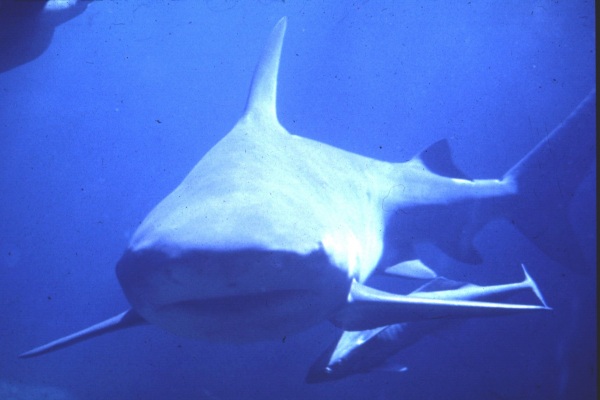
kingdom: Animalia
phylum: Chordata
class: Elasmobranchii
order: Carcharhiniformes
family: Carcharhinidae
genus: Carcharhinus
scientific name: Carcharhinus leucas
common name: Bull shark
